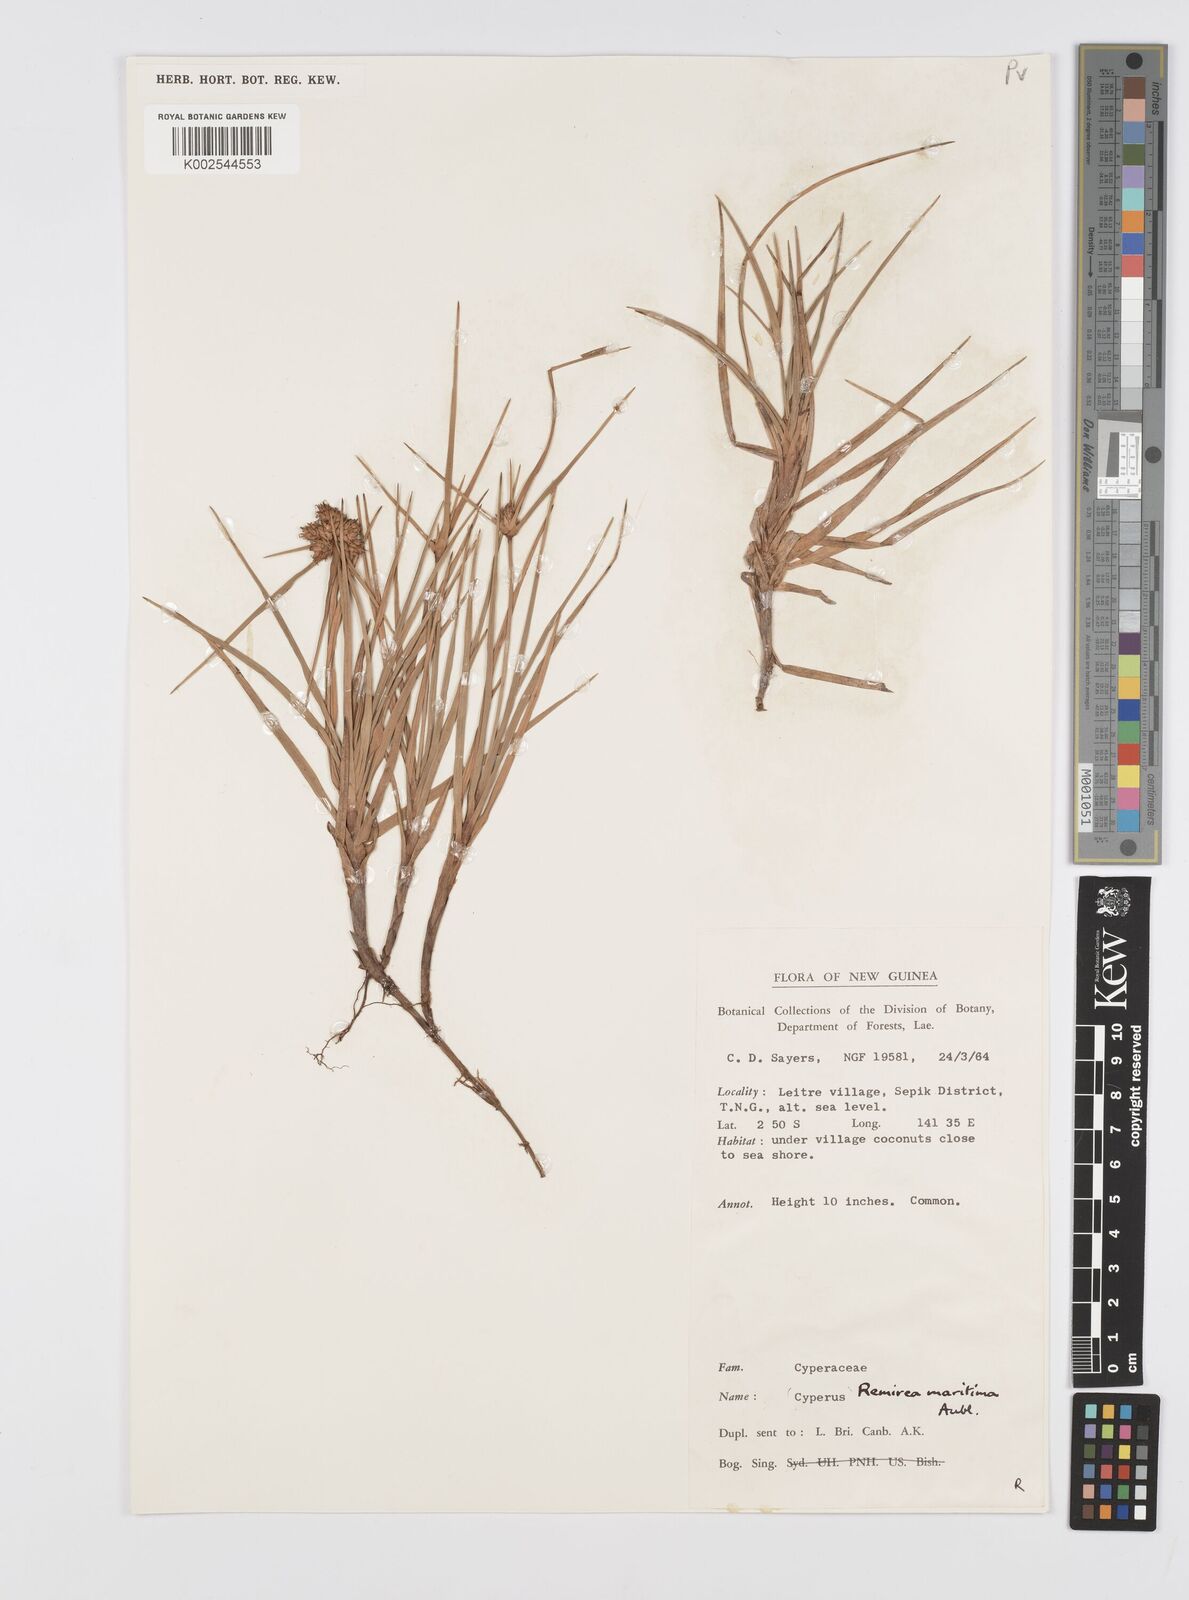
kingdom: Plantae
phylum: Tracheophyta
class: Liliopsida
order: Poales
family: Cyperaceae
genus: Cyperus
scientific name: Cyperus
